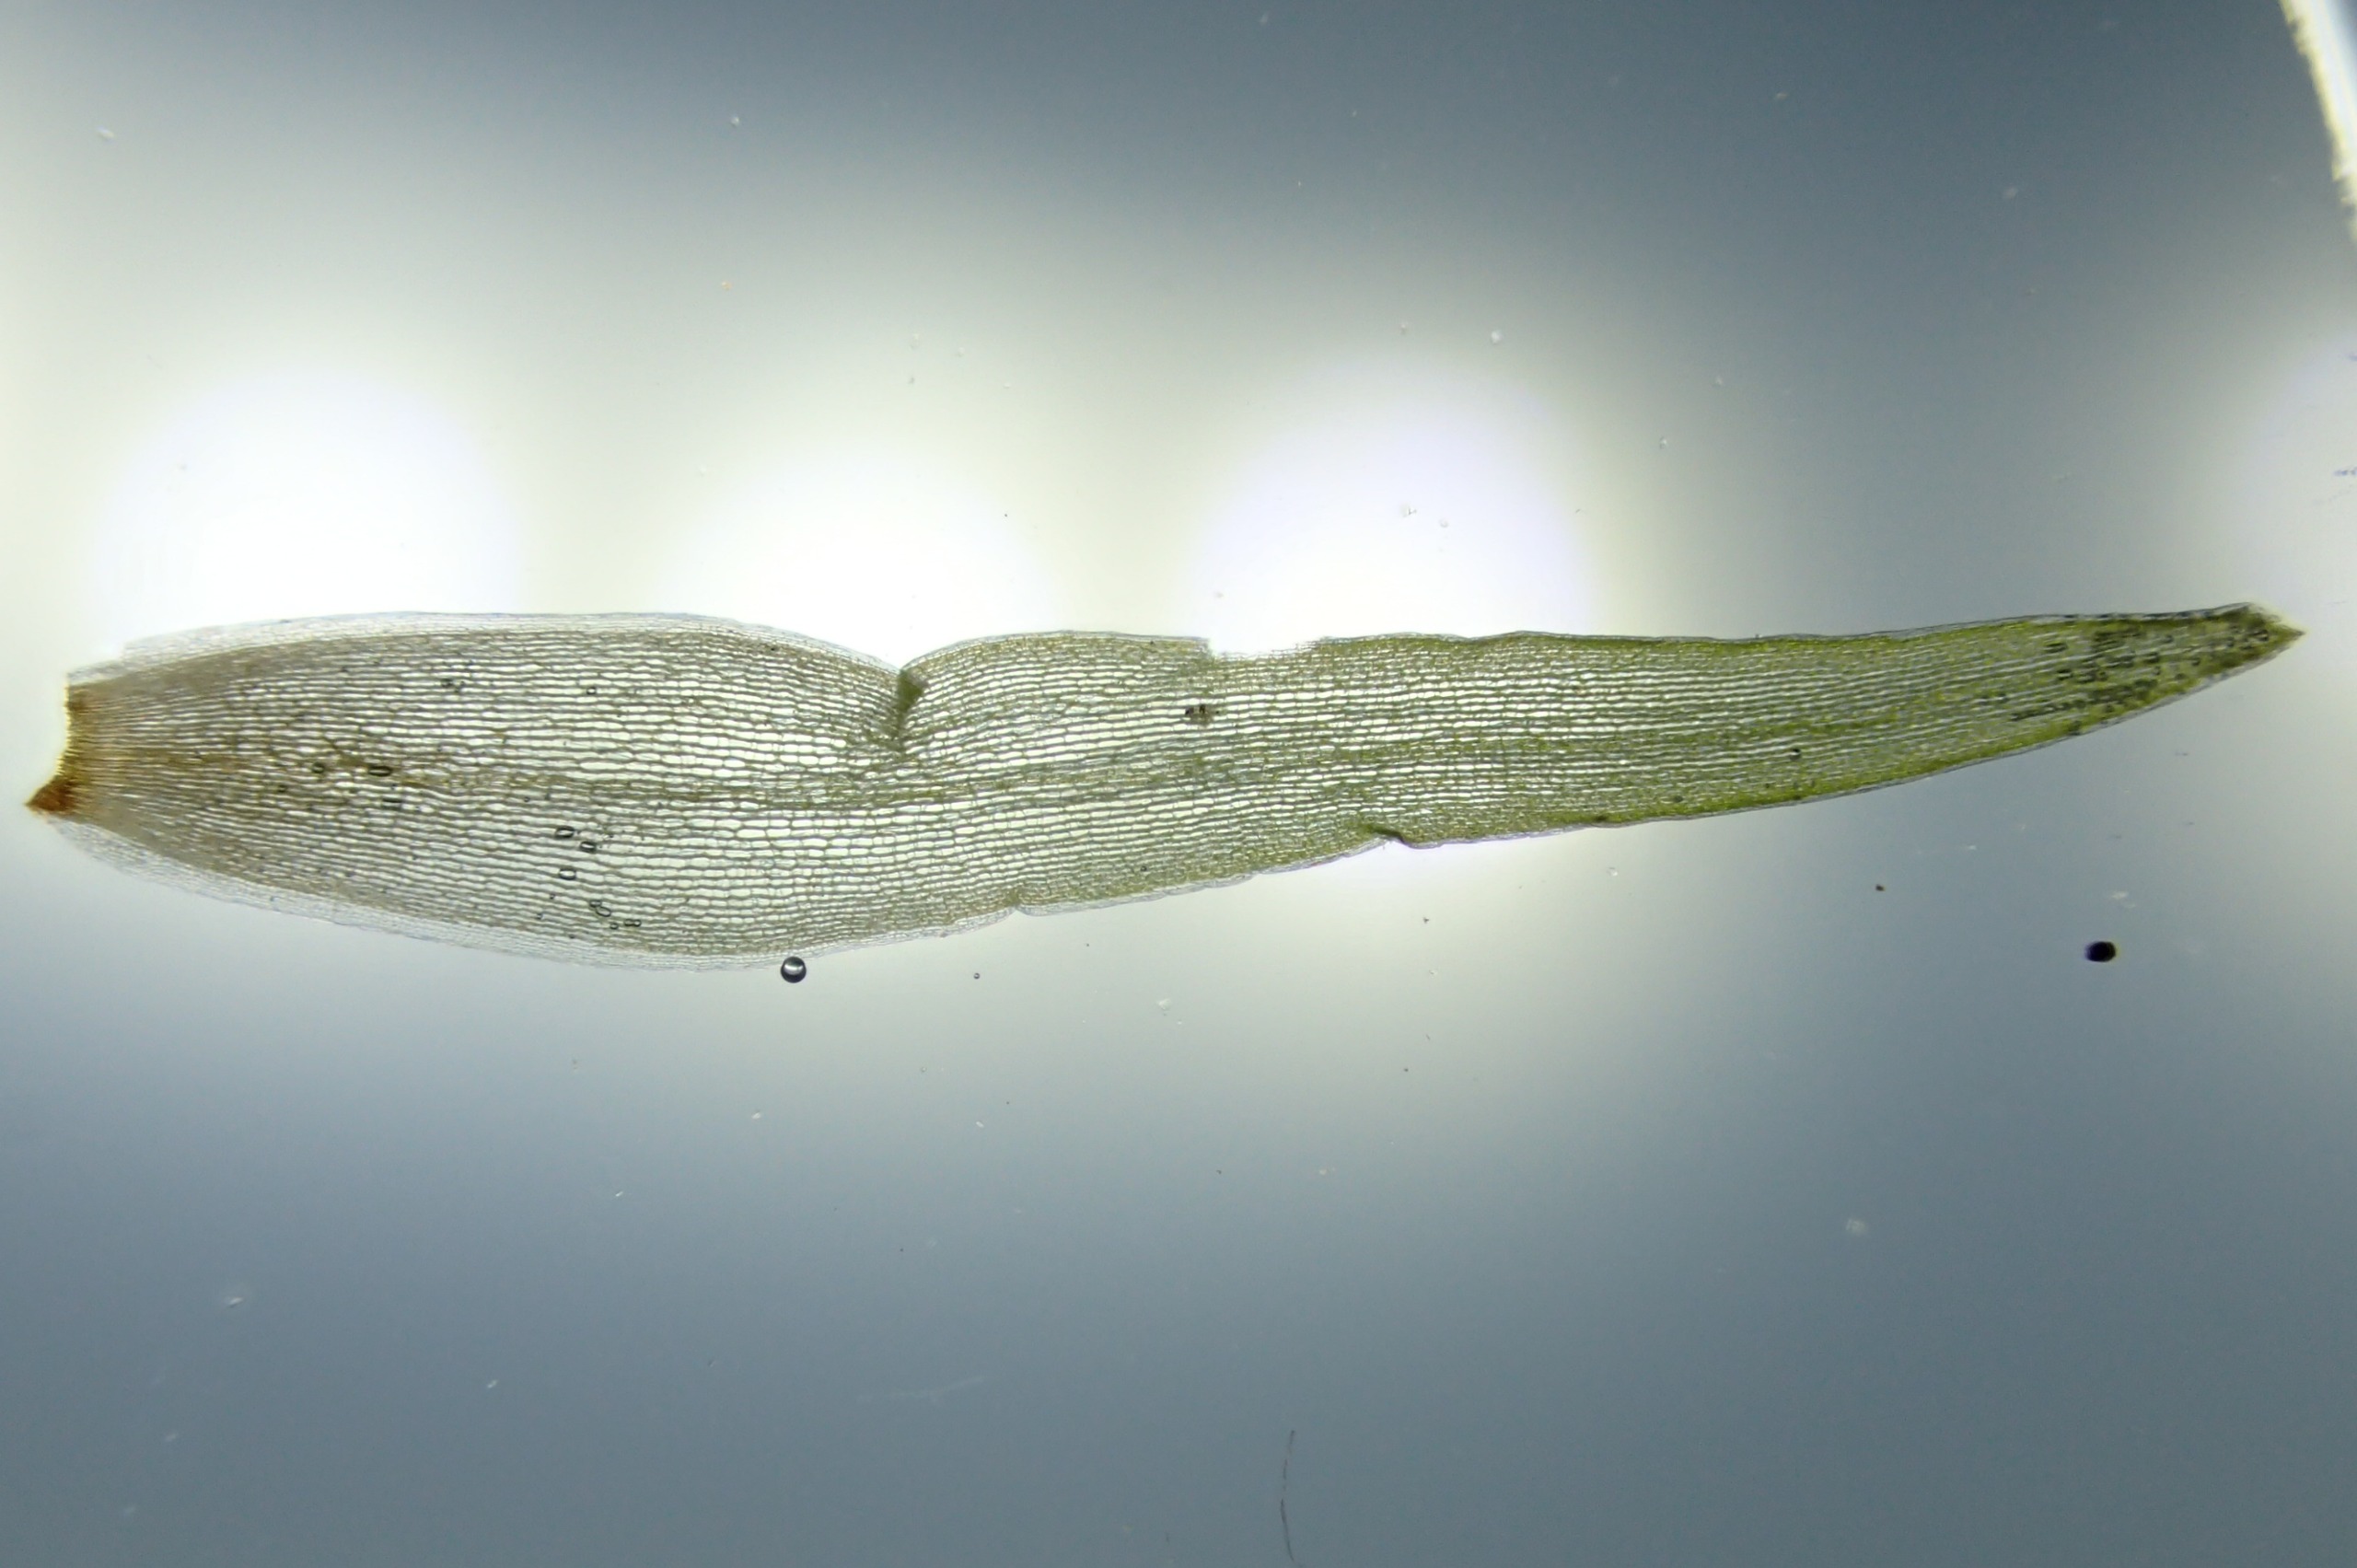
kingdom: Plantae
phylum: Bryophyta
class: Bryopsida
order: Dicranales
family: Leucobryaceae
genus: Leucobryum
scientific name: Leucobryum glaucum
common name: Almindelig hvidmos
